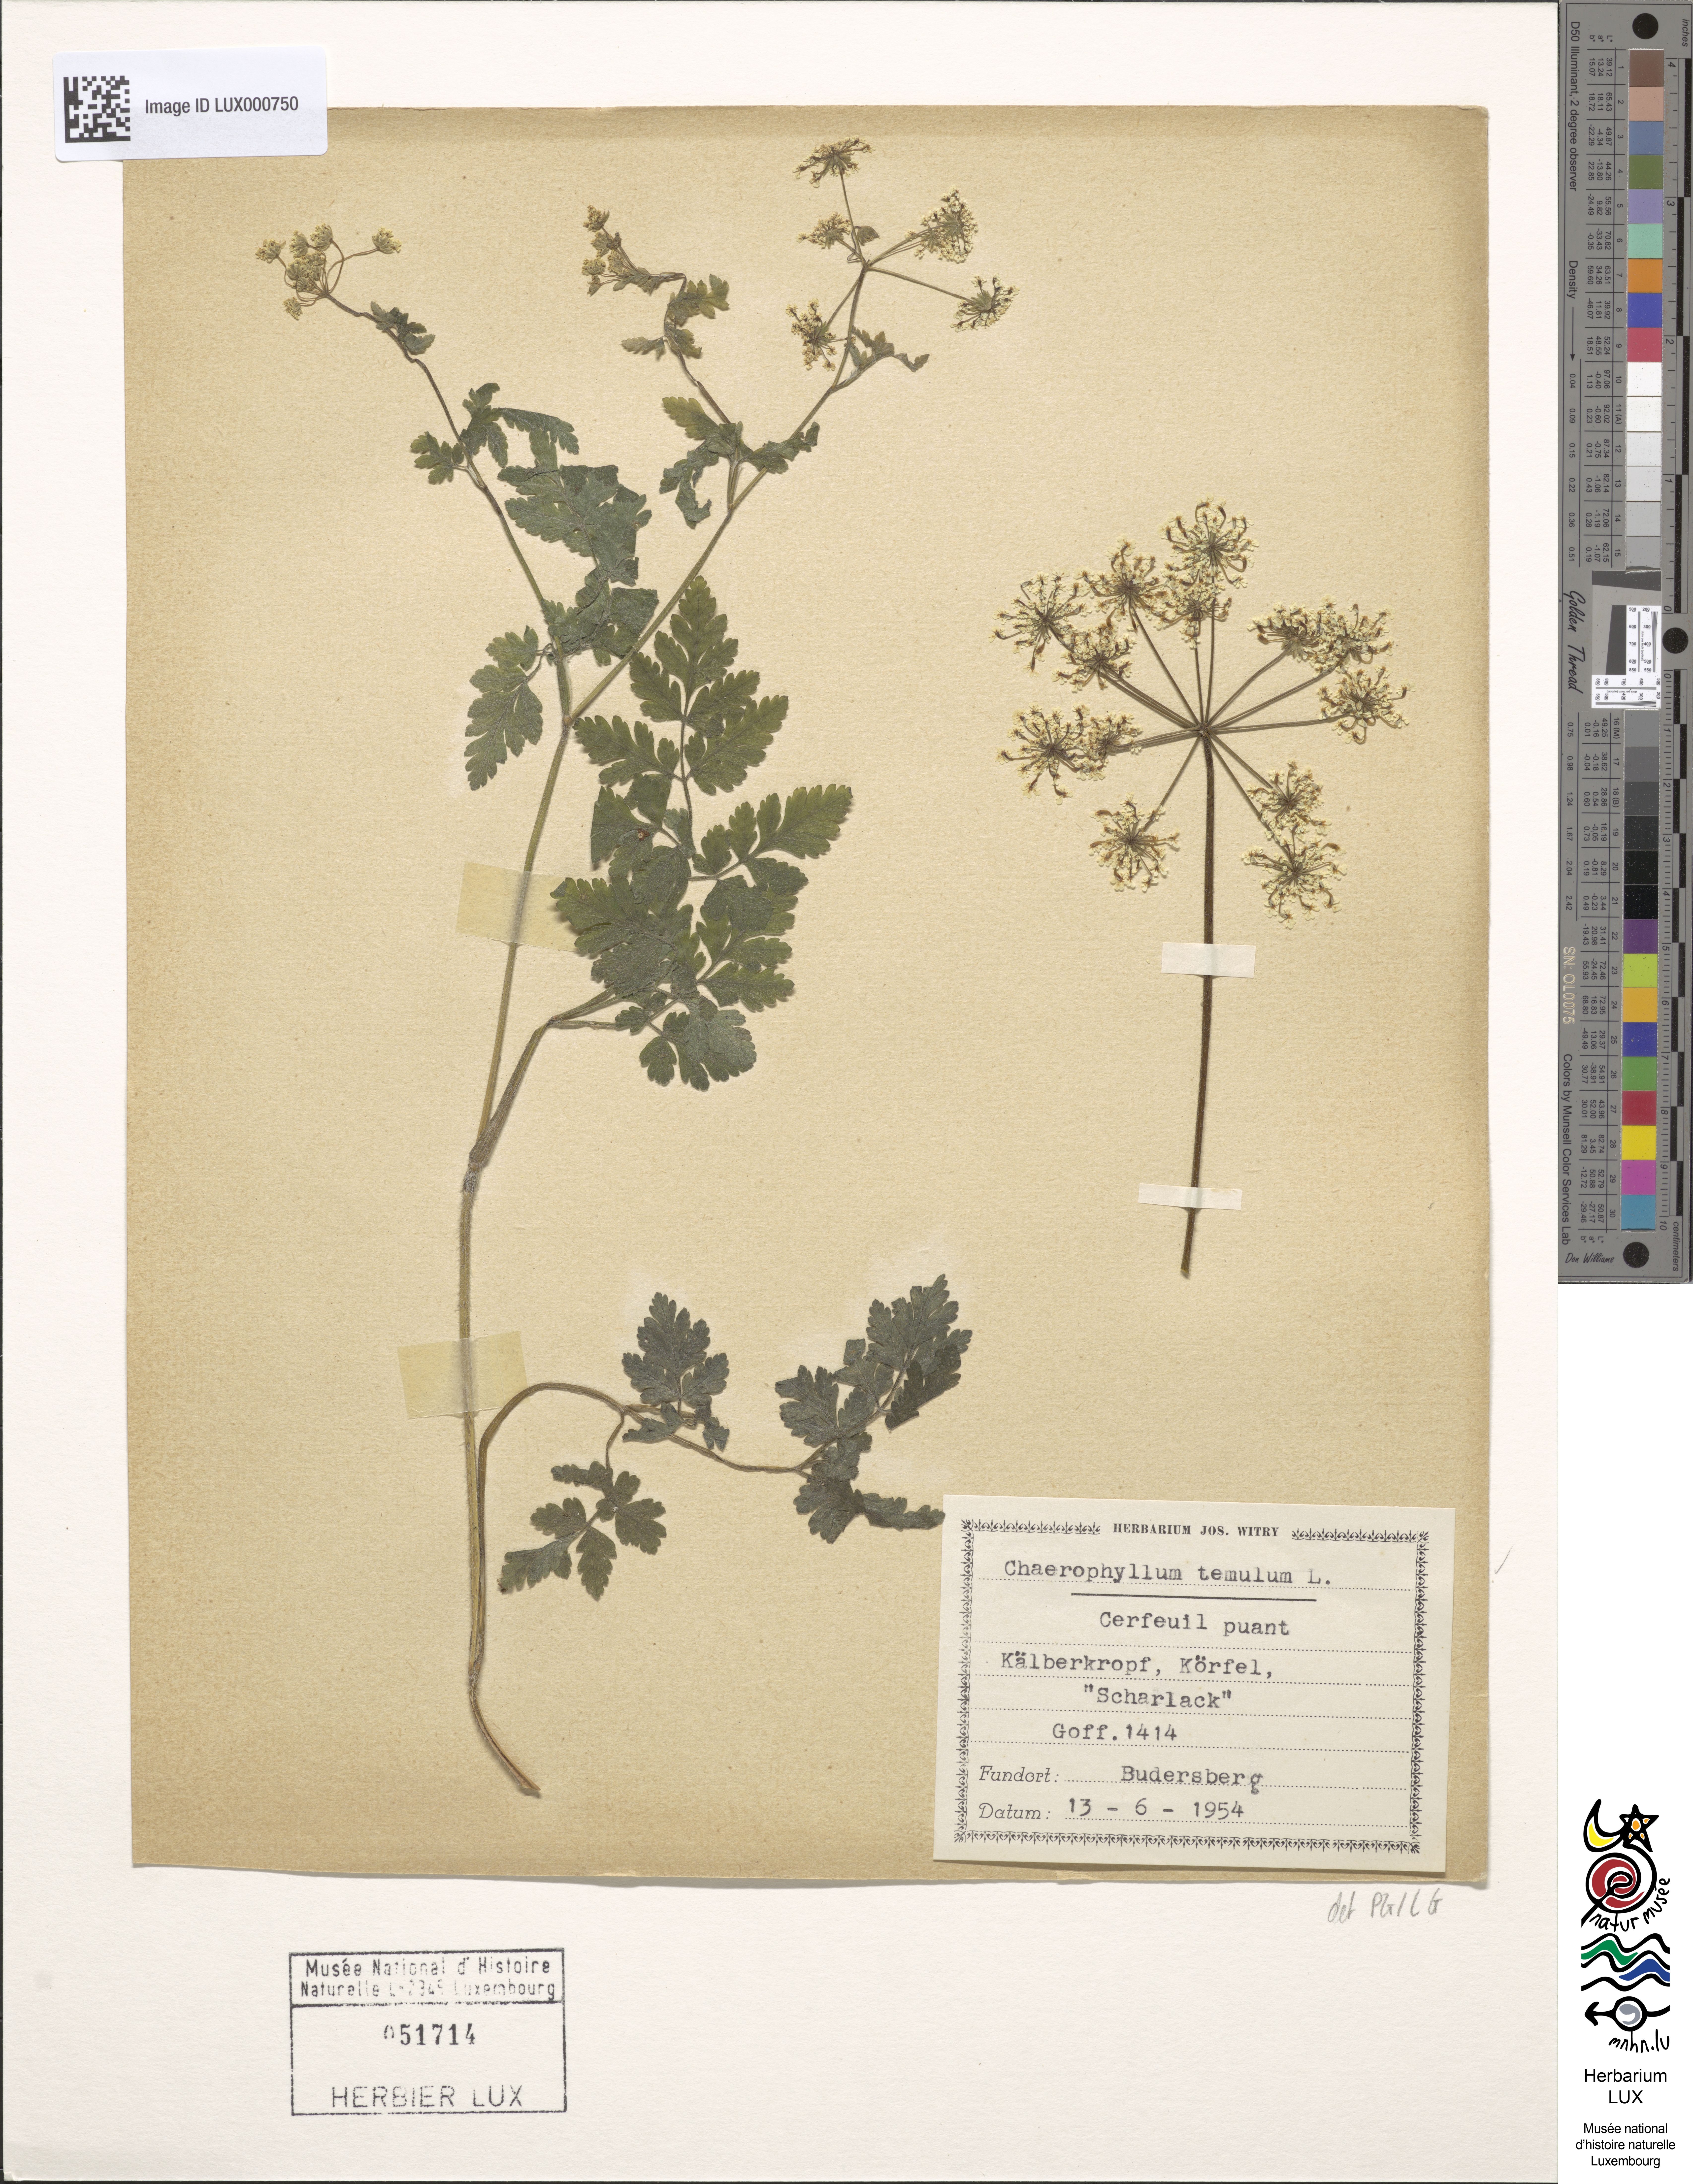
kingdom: Plantae
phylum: Tracheophyta
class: Magnoliopsida
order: Apiales
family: Apiaceae
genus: Chaerophyllum
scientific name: Chaerophyllum temulum
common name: Rough chervil
